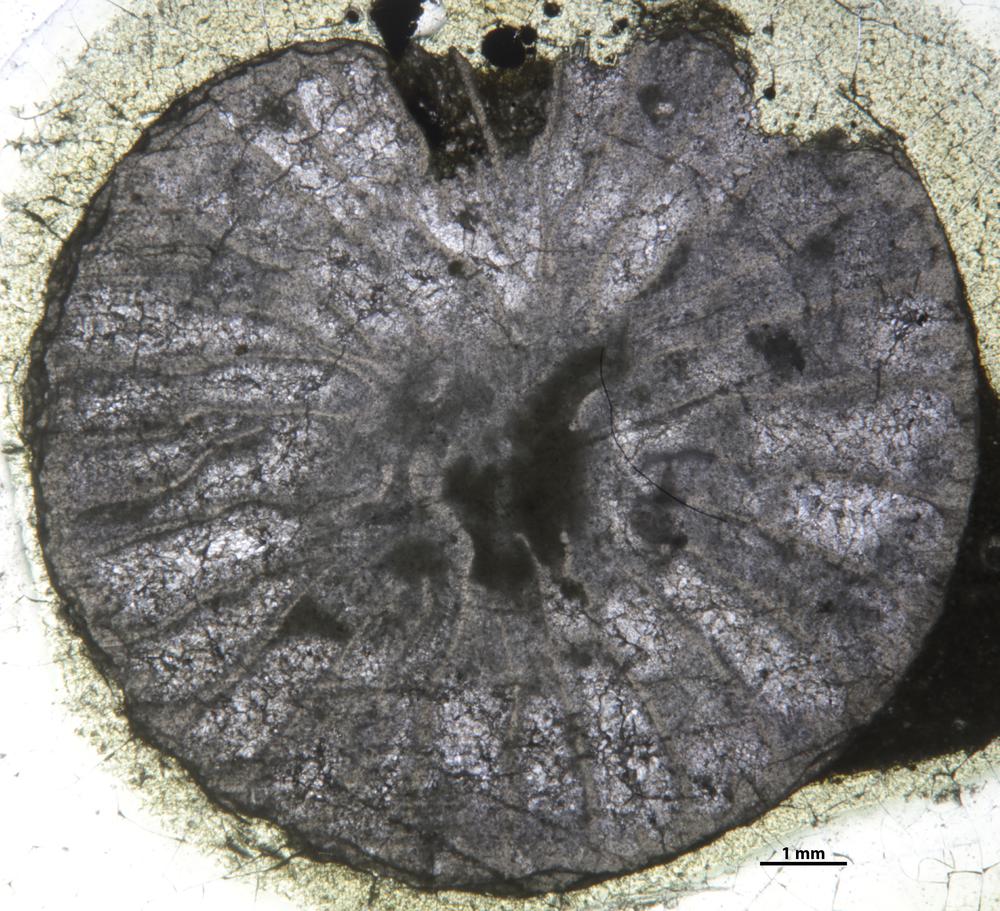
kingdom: Animalia
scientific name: Animalia
